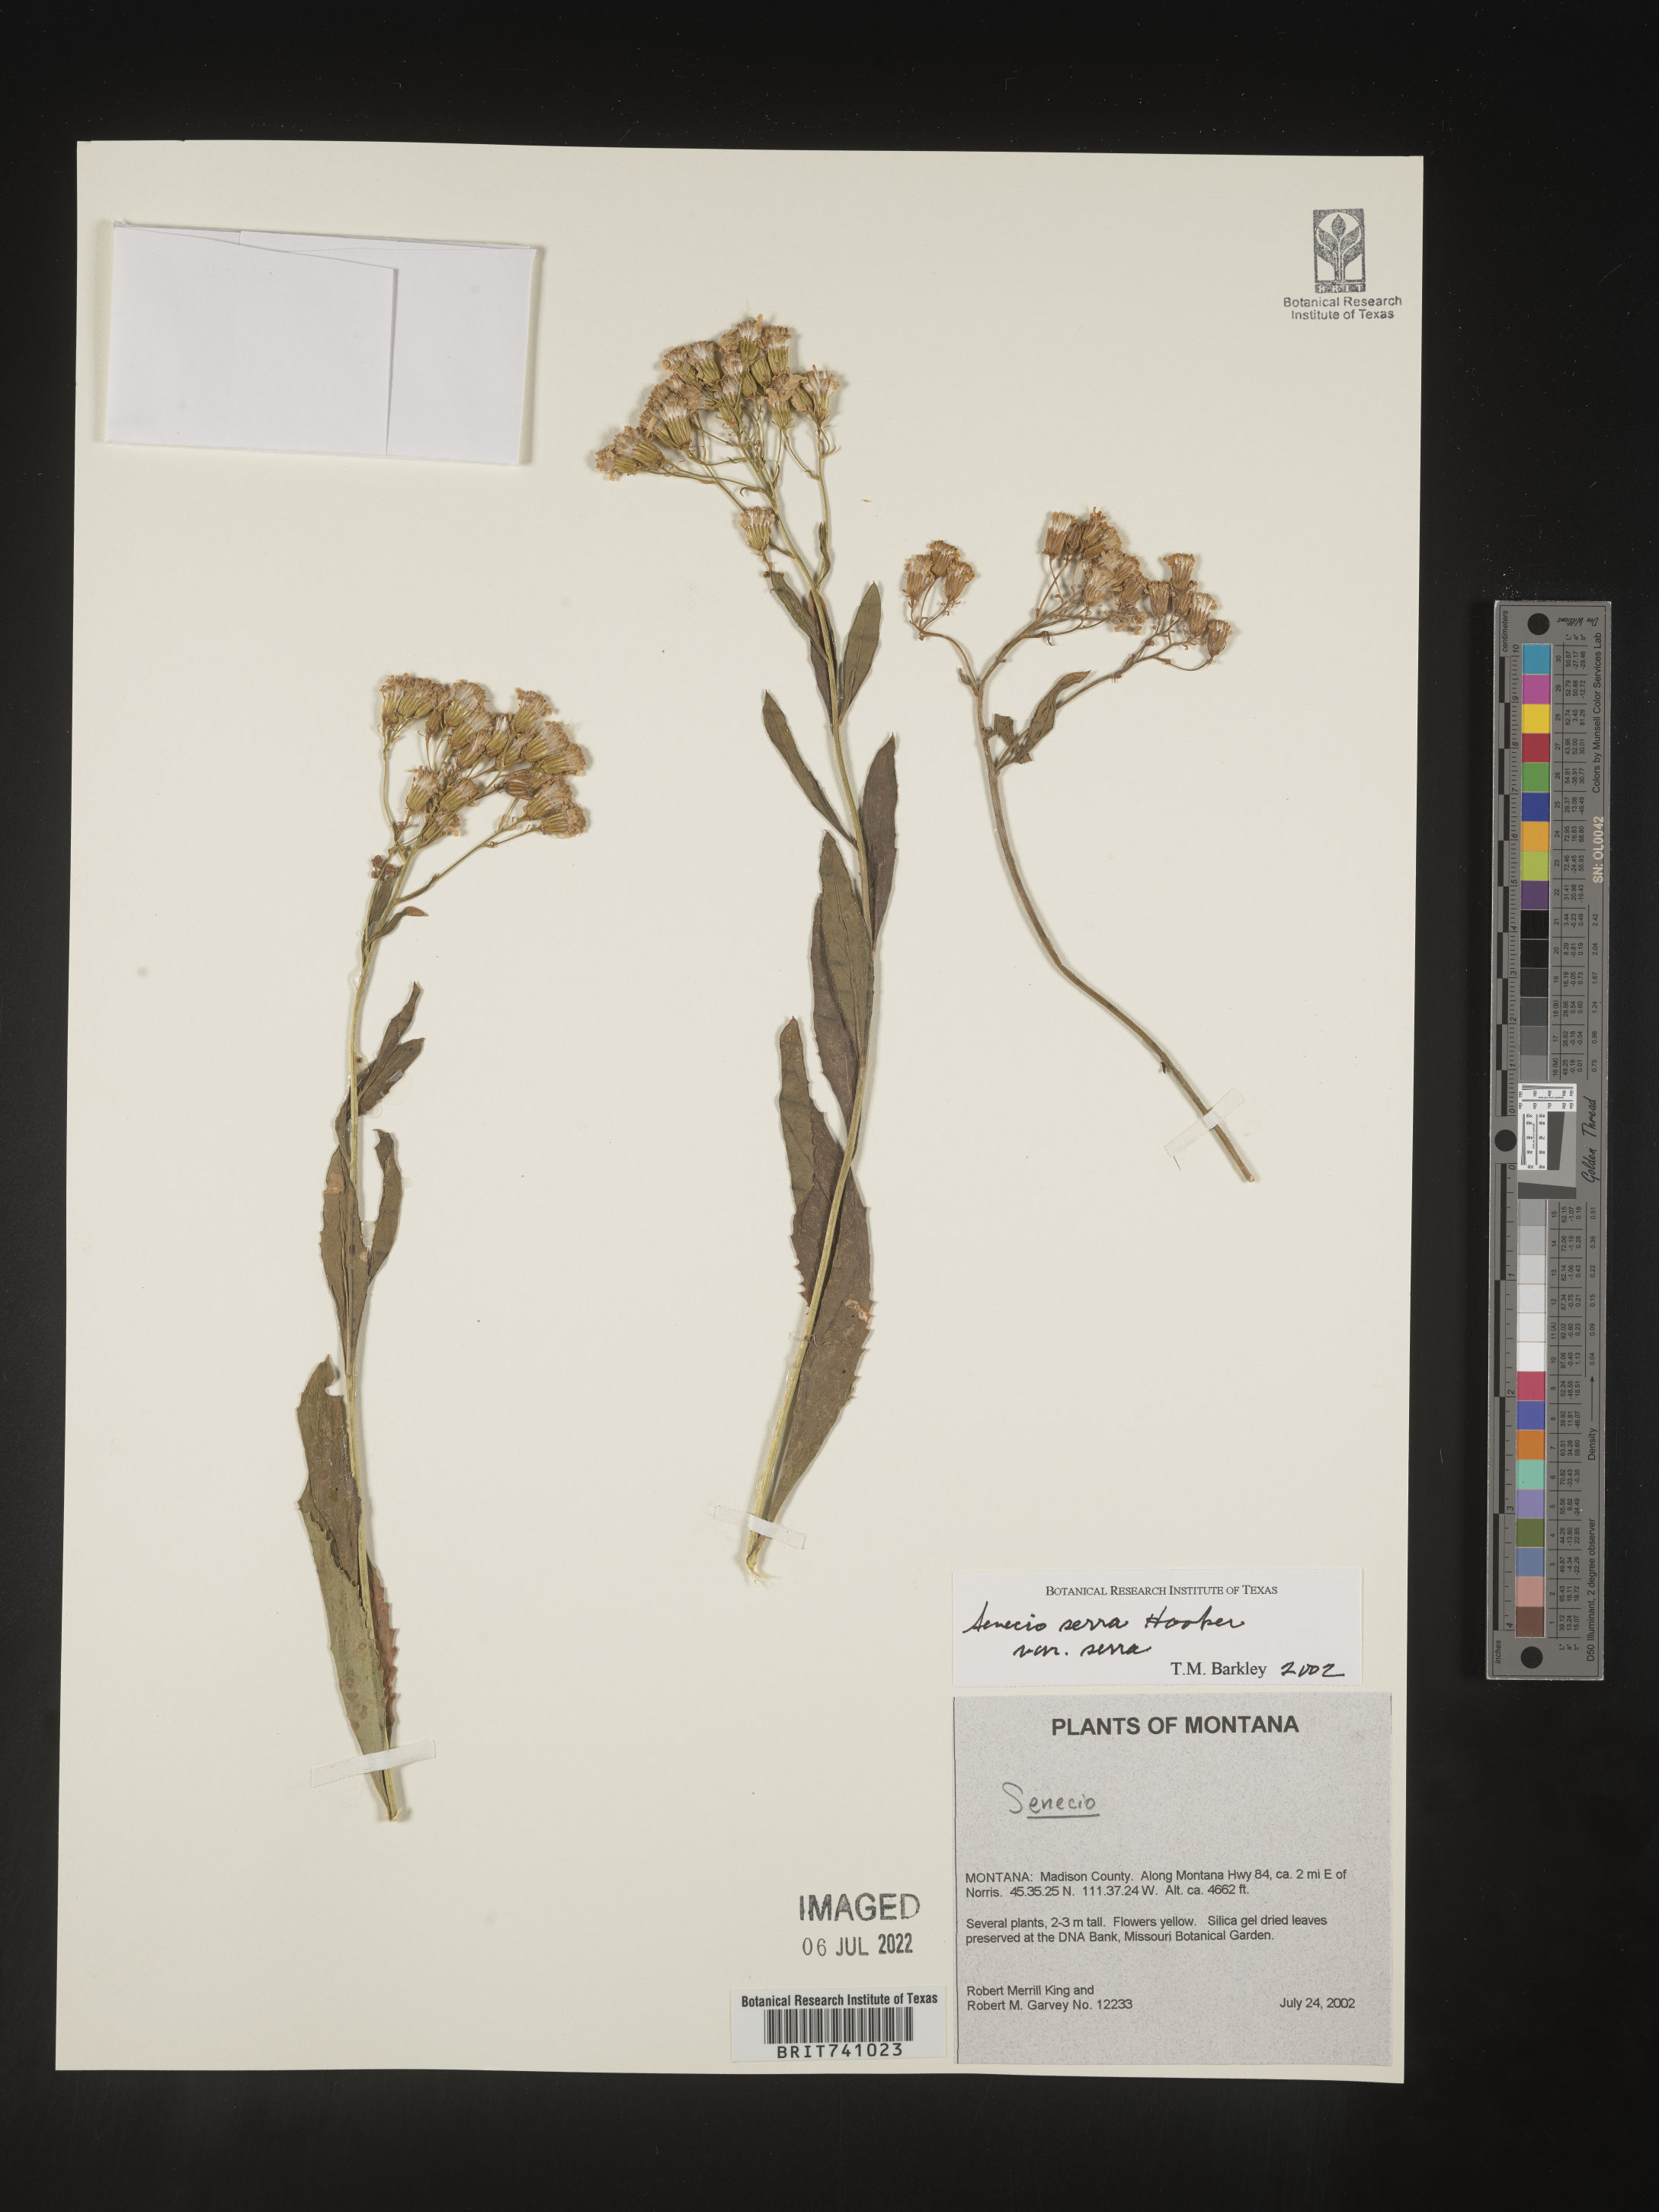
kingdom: Plantae
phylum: Tracheophyta
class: Magnoliopsida
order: Asterales
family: Asteraceae
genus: Senecio
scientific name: Senecio serra
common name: Tall ragwort
